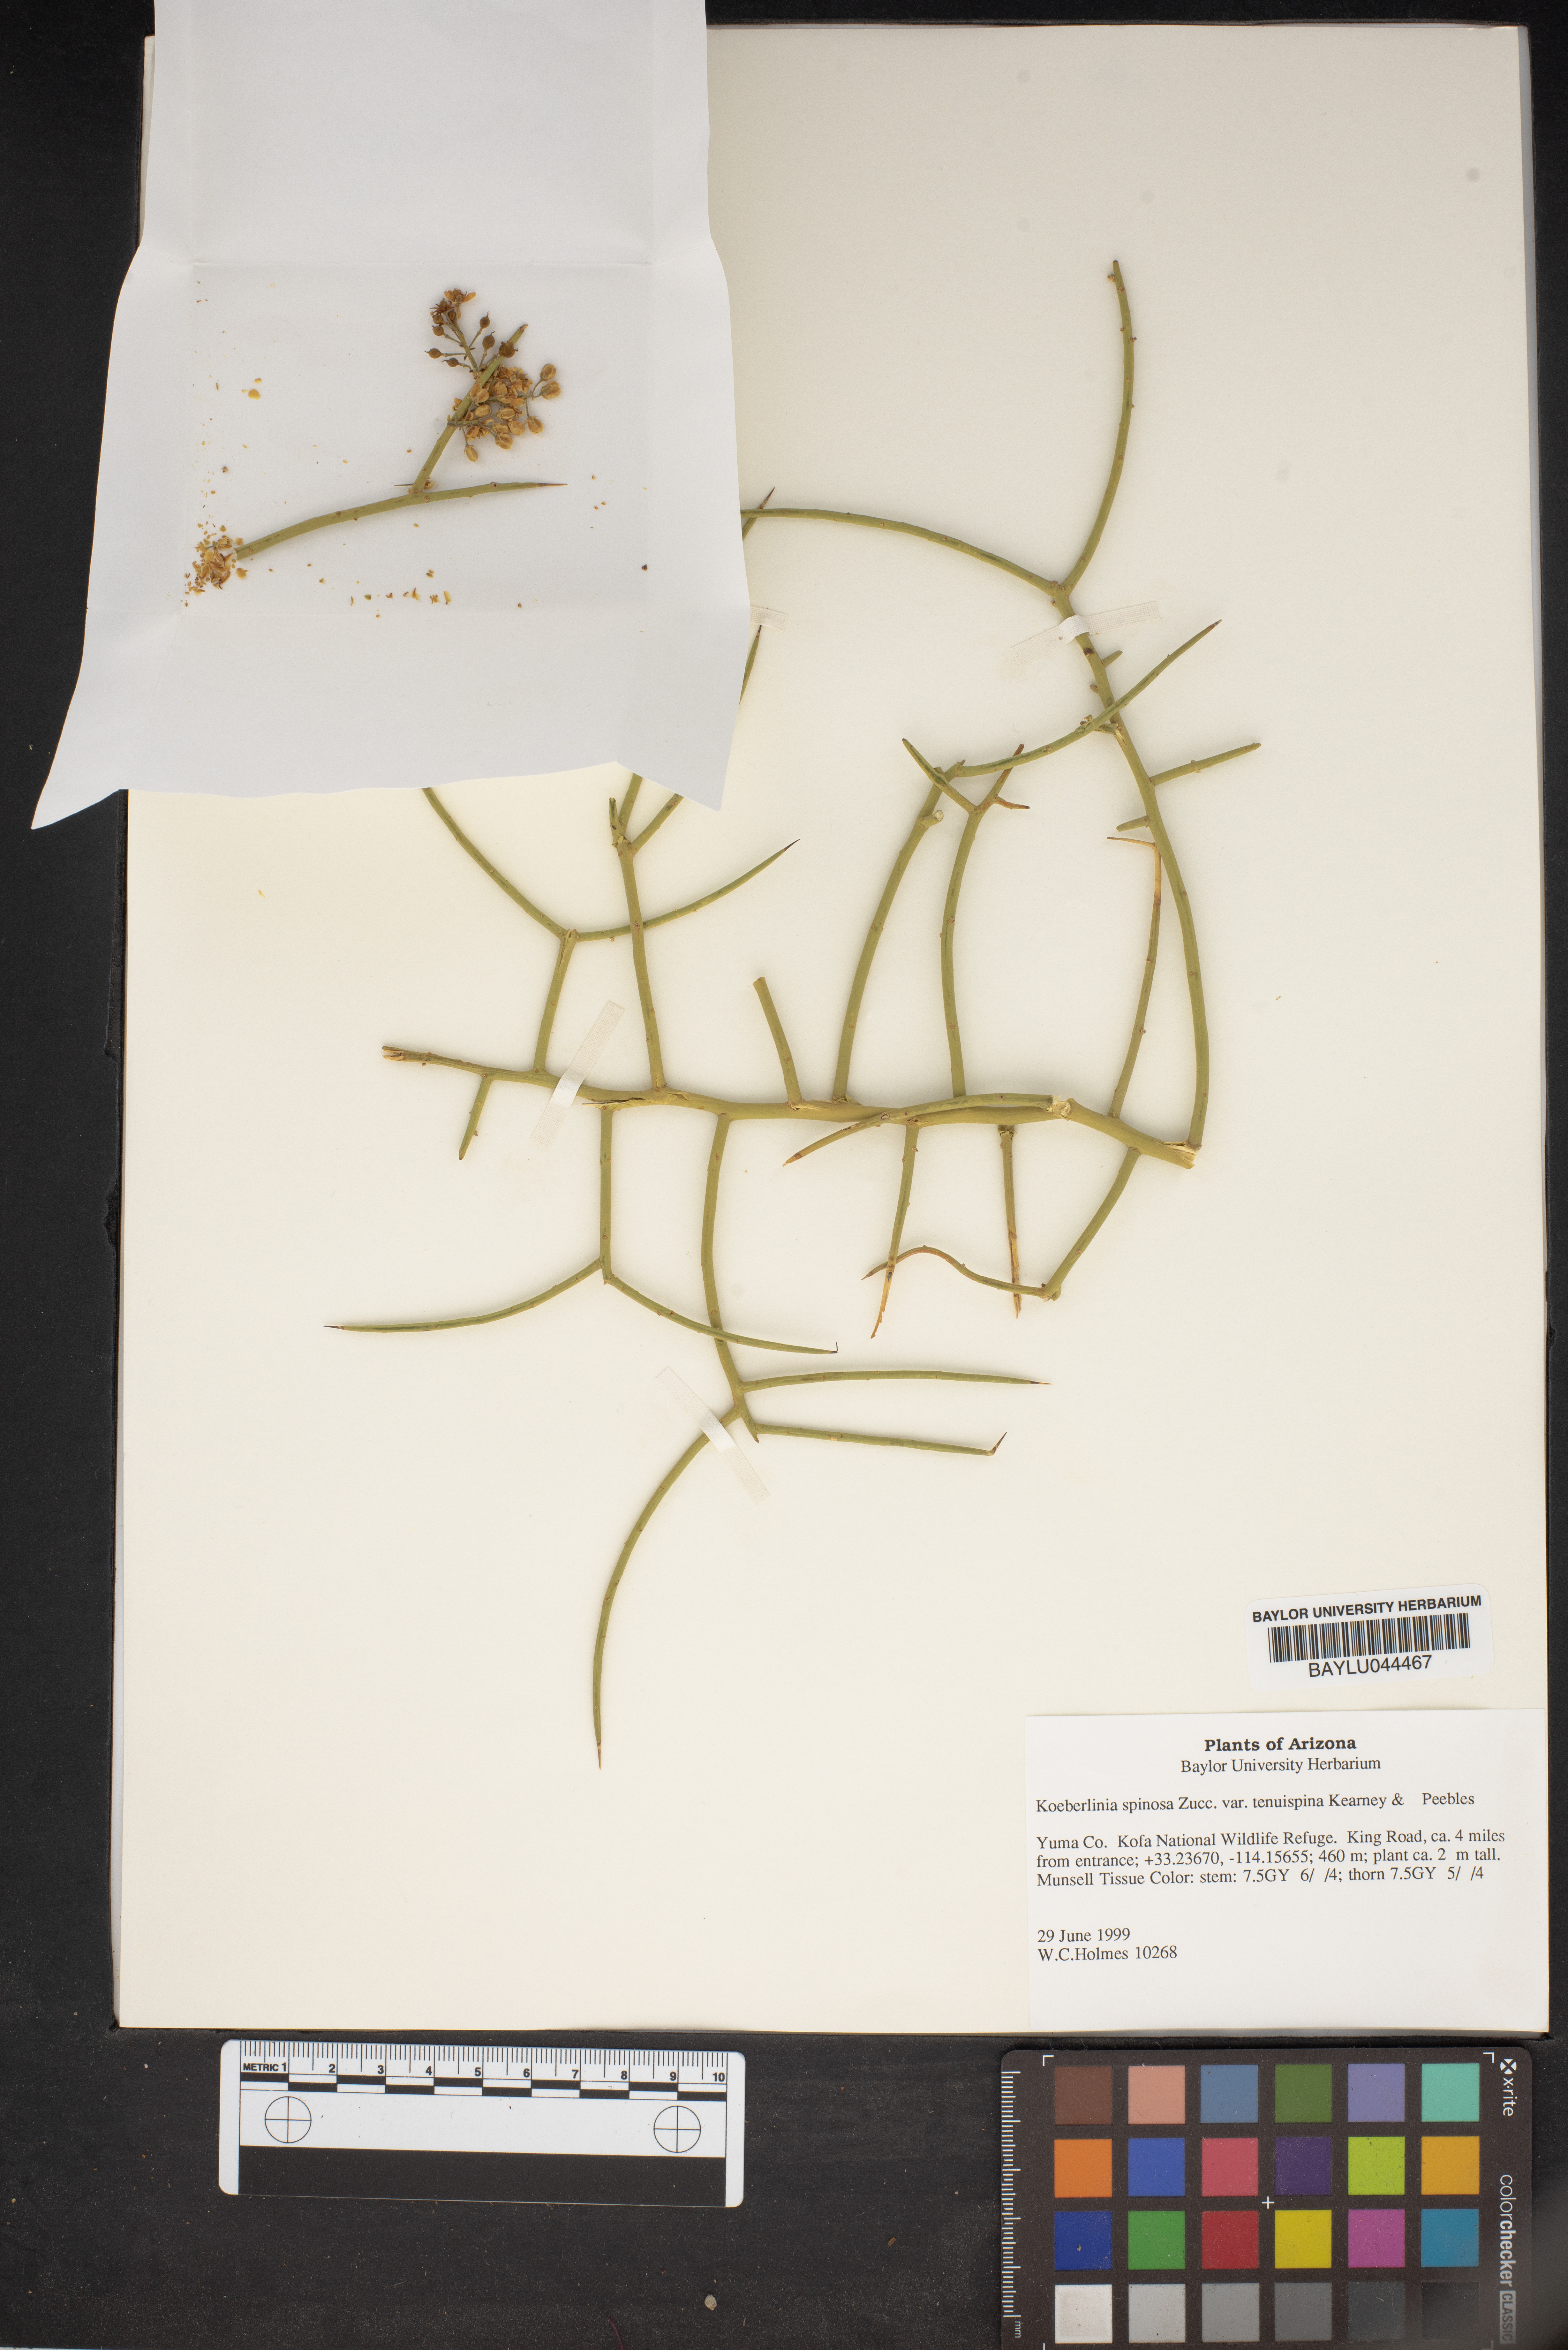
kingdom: Plantae
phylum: Tracheophyta
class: Magnoliopsida
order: Brassicales
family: Koeberliniaceae
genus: Koeberlinia
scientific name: Koeberlinia spinosa
